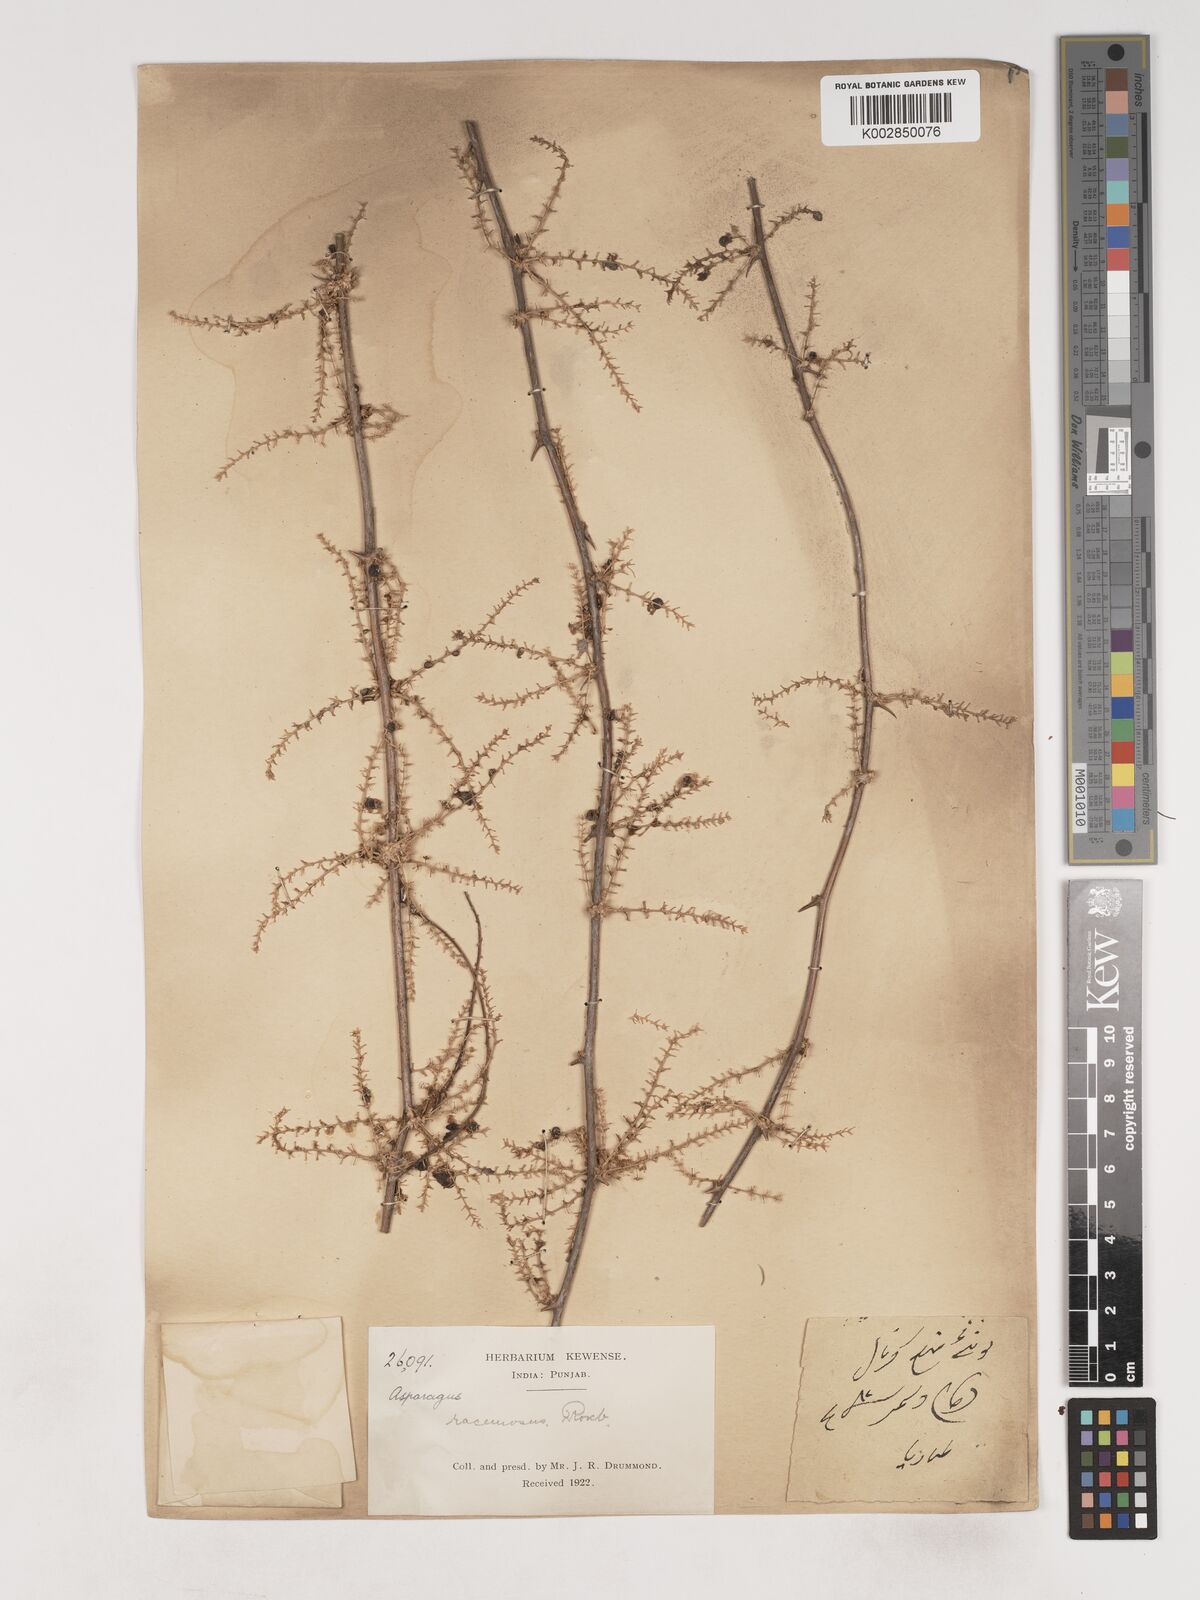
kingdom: Plantae
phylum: Tracheophyta
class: Liliopsida
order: Asparagales
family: Asparagaceae
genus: Asparagus
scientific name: Asparagus racemosus
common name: Asparagus-fern
